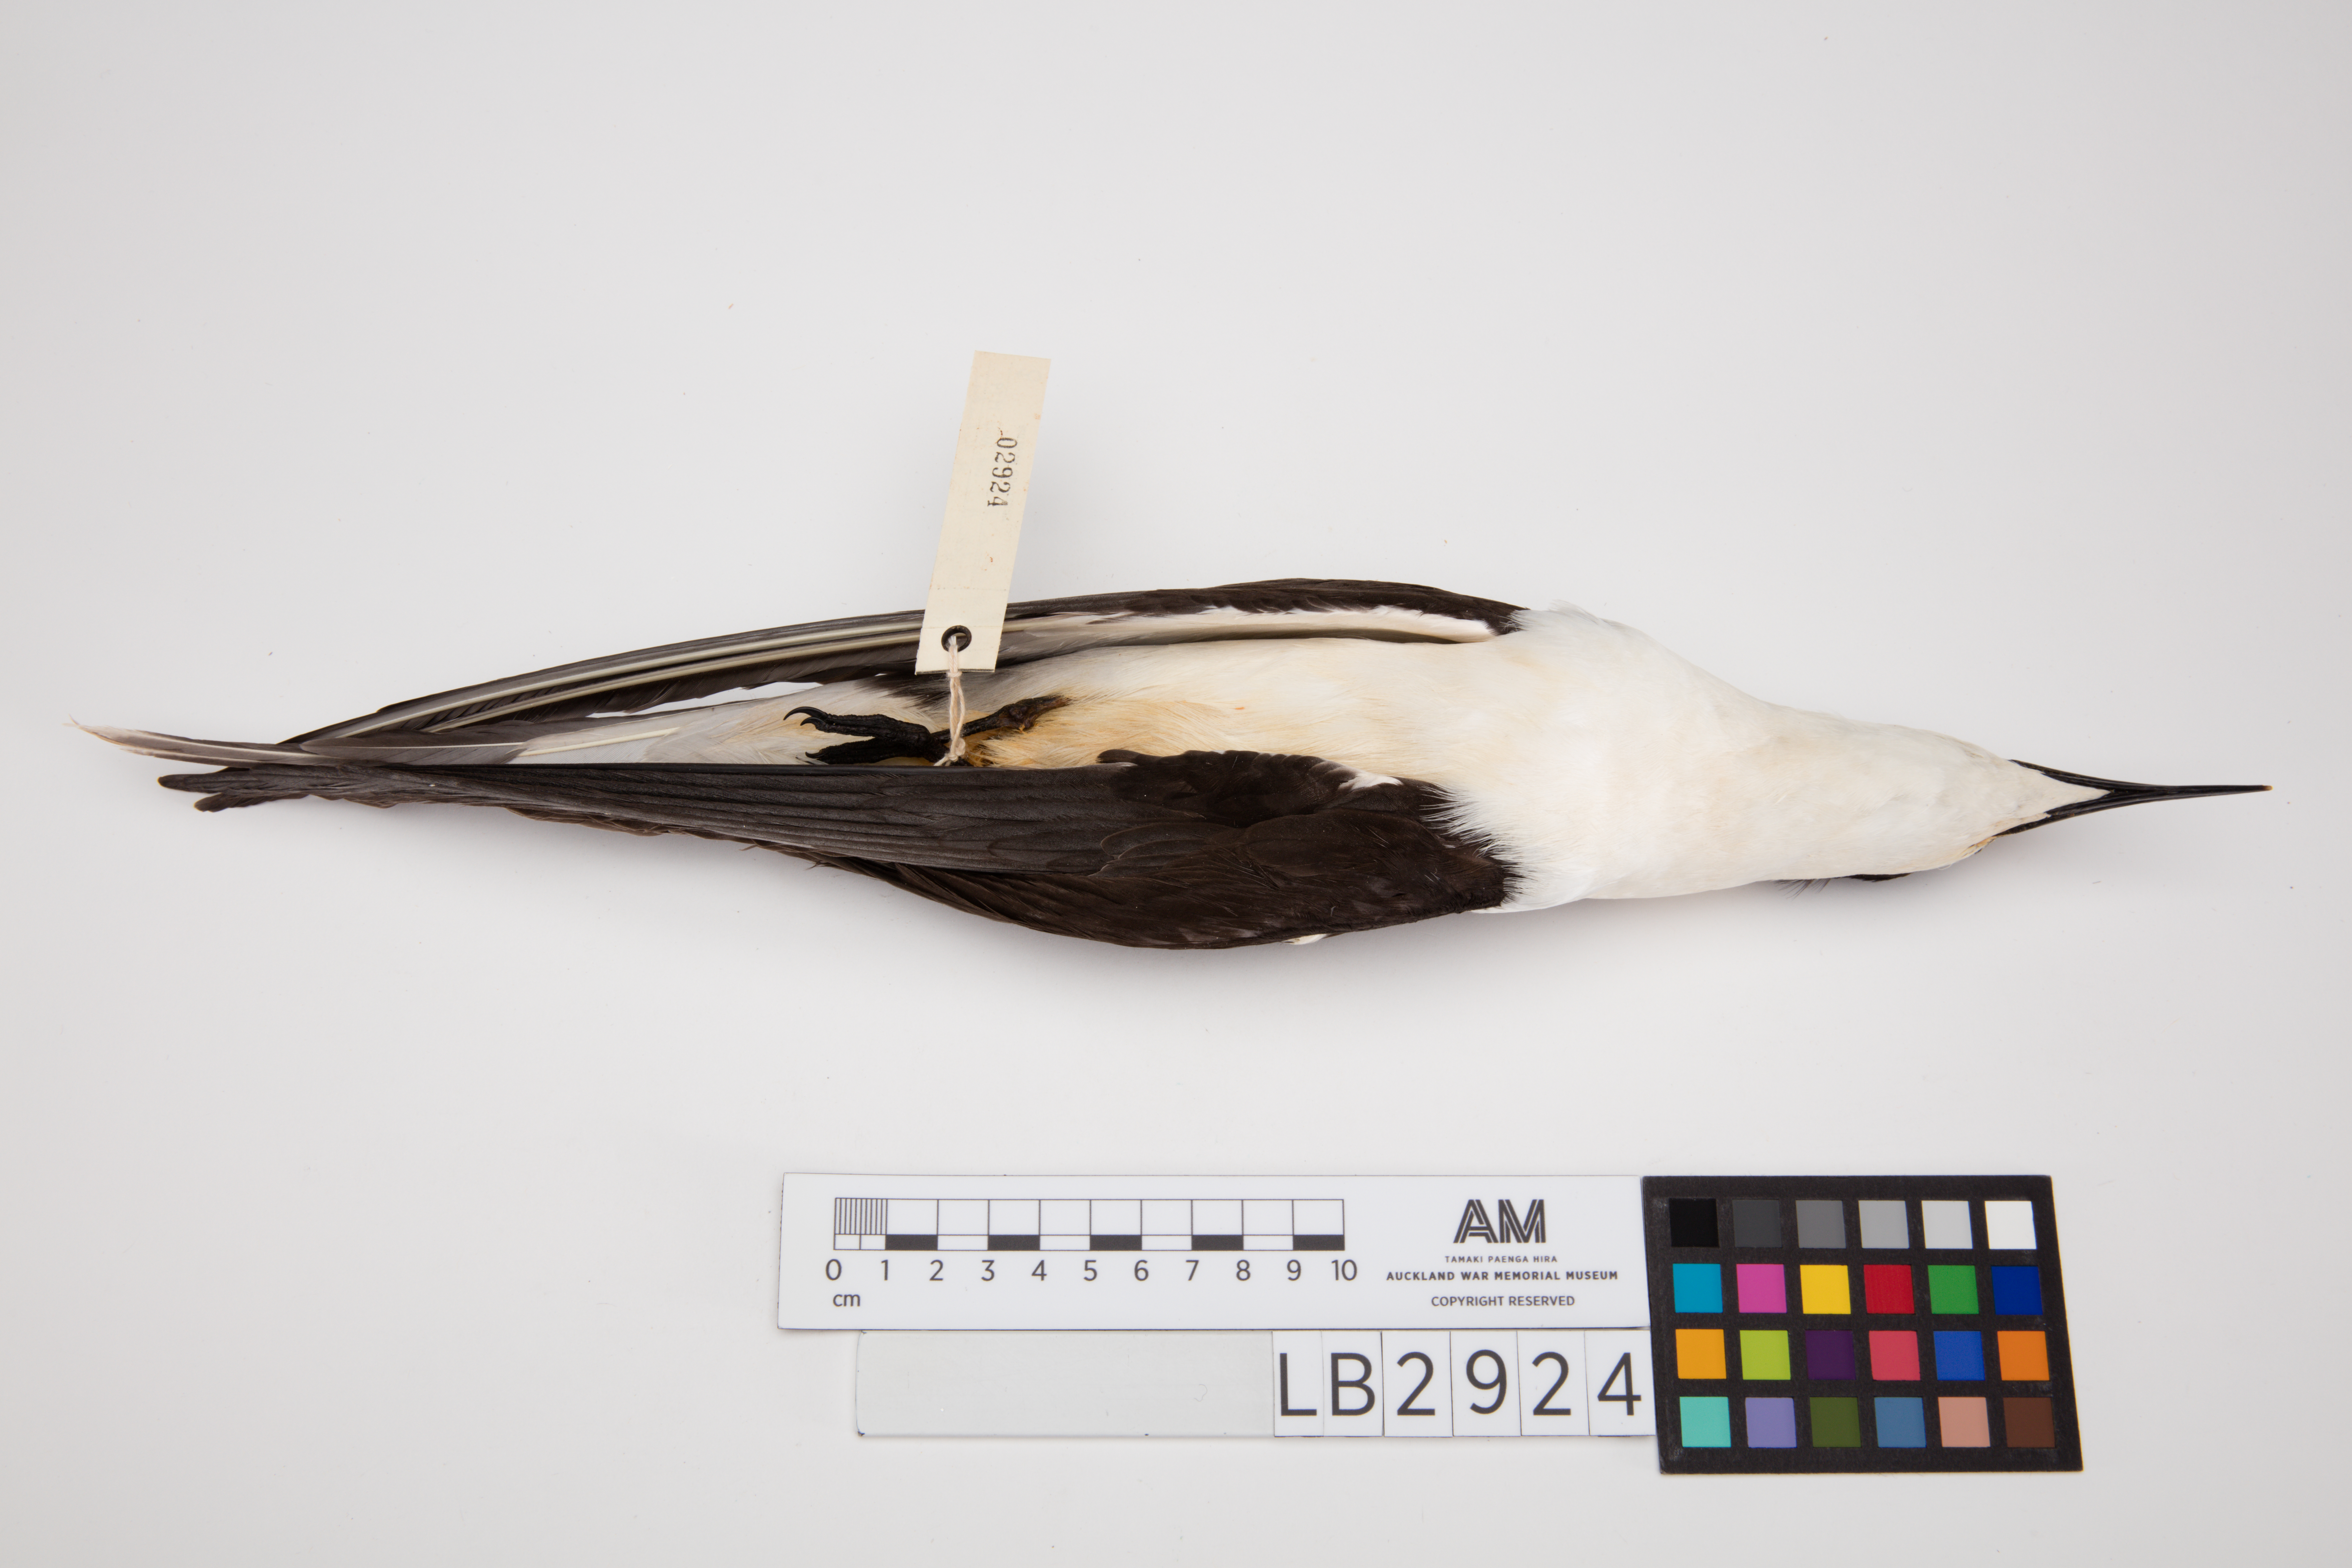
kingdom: Animalia
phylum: Chordata
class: Aves
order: Charadriiformes
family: Laridae
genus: Onychoprion
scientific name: Onychoprion fuscatus
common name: Sooty tern
